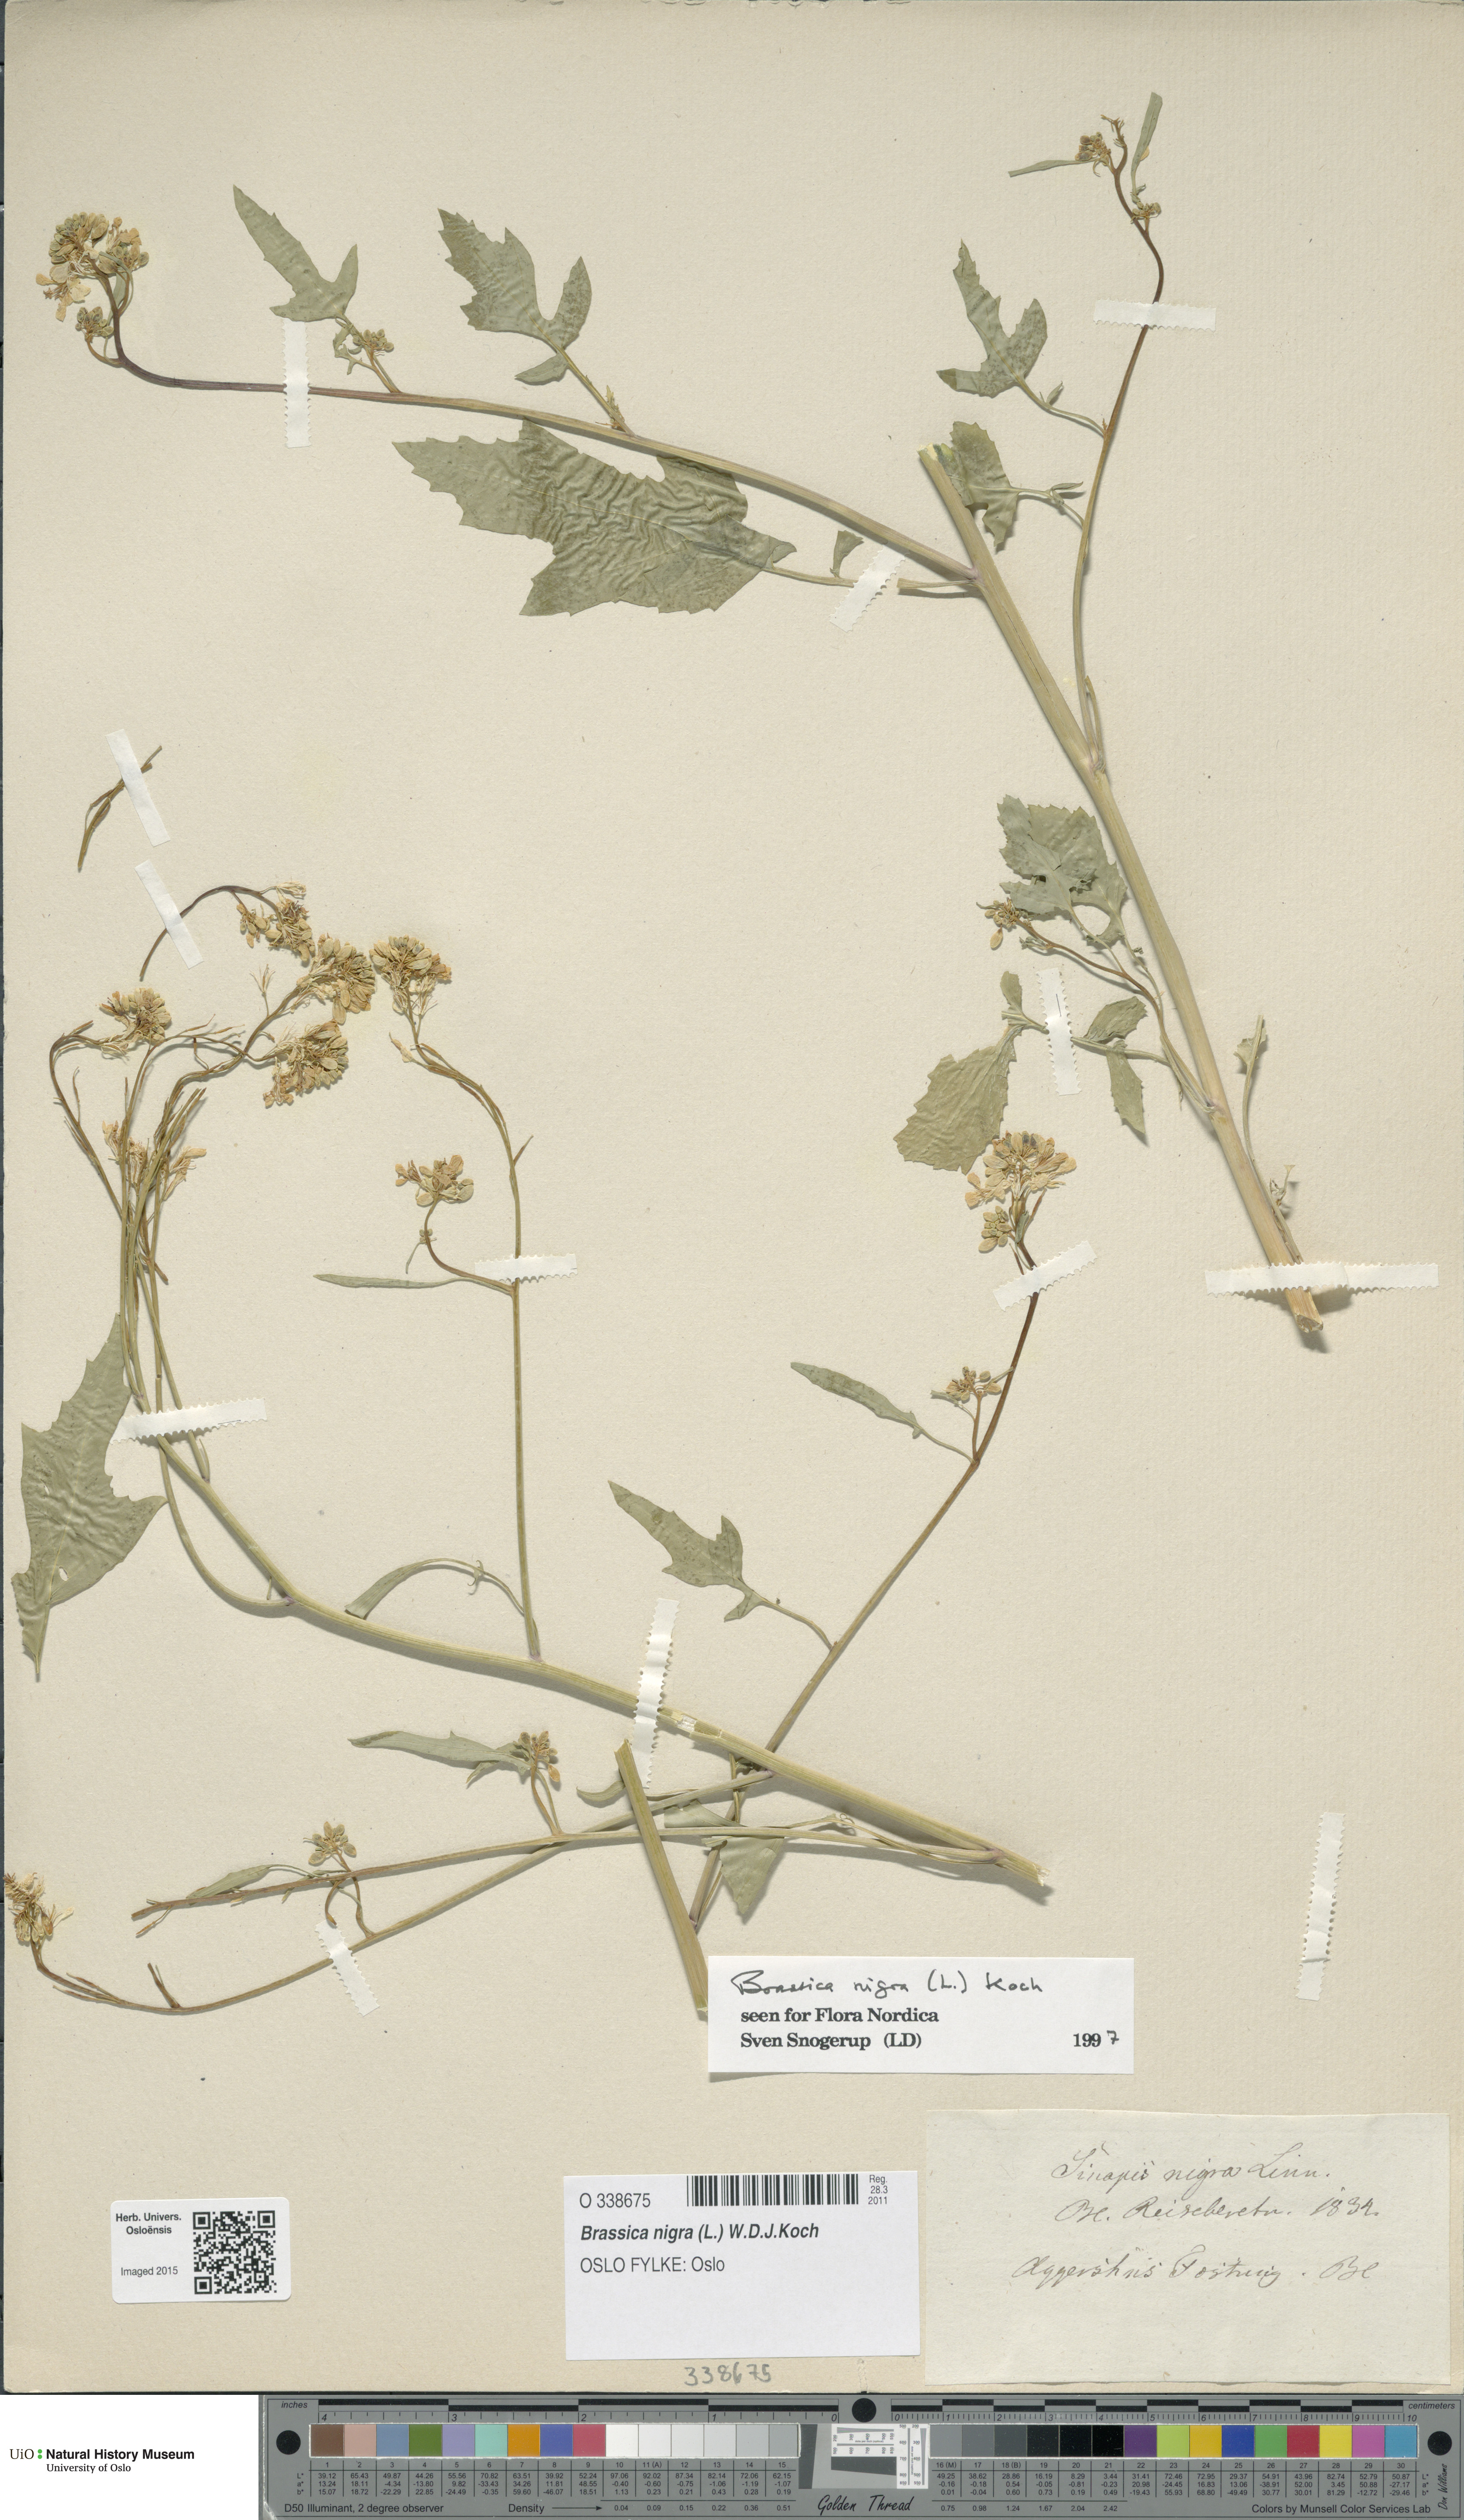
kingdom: Plantae
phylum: Tracheophyta
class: Magnoliopsida
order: Brassicales
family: Brassicaceae
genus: Brassica
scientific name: Brassica nigra
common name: Black mustard
